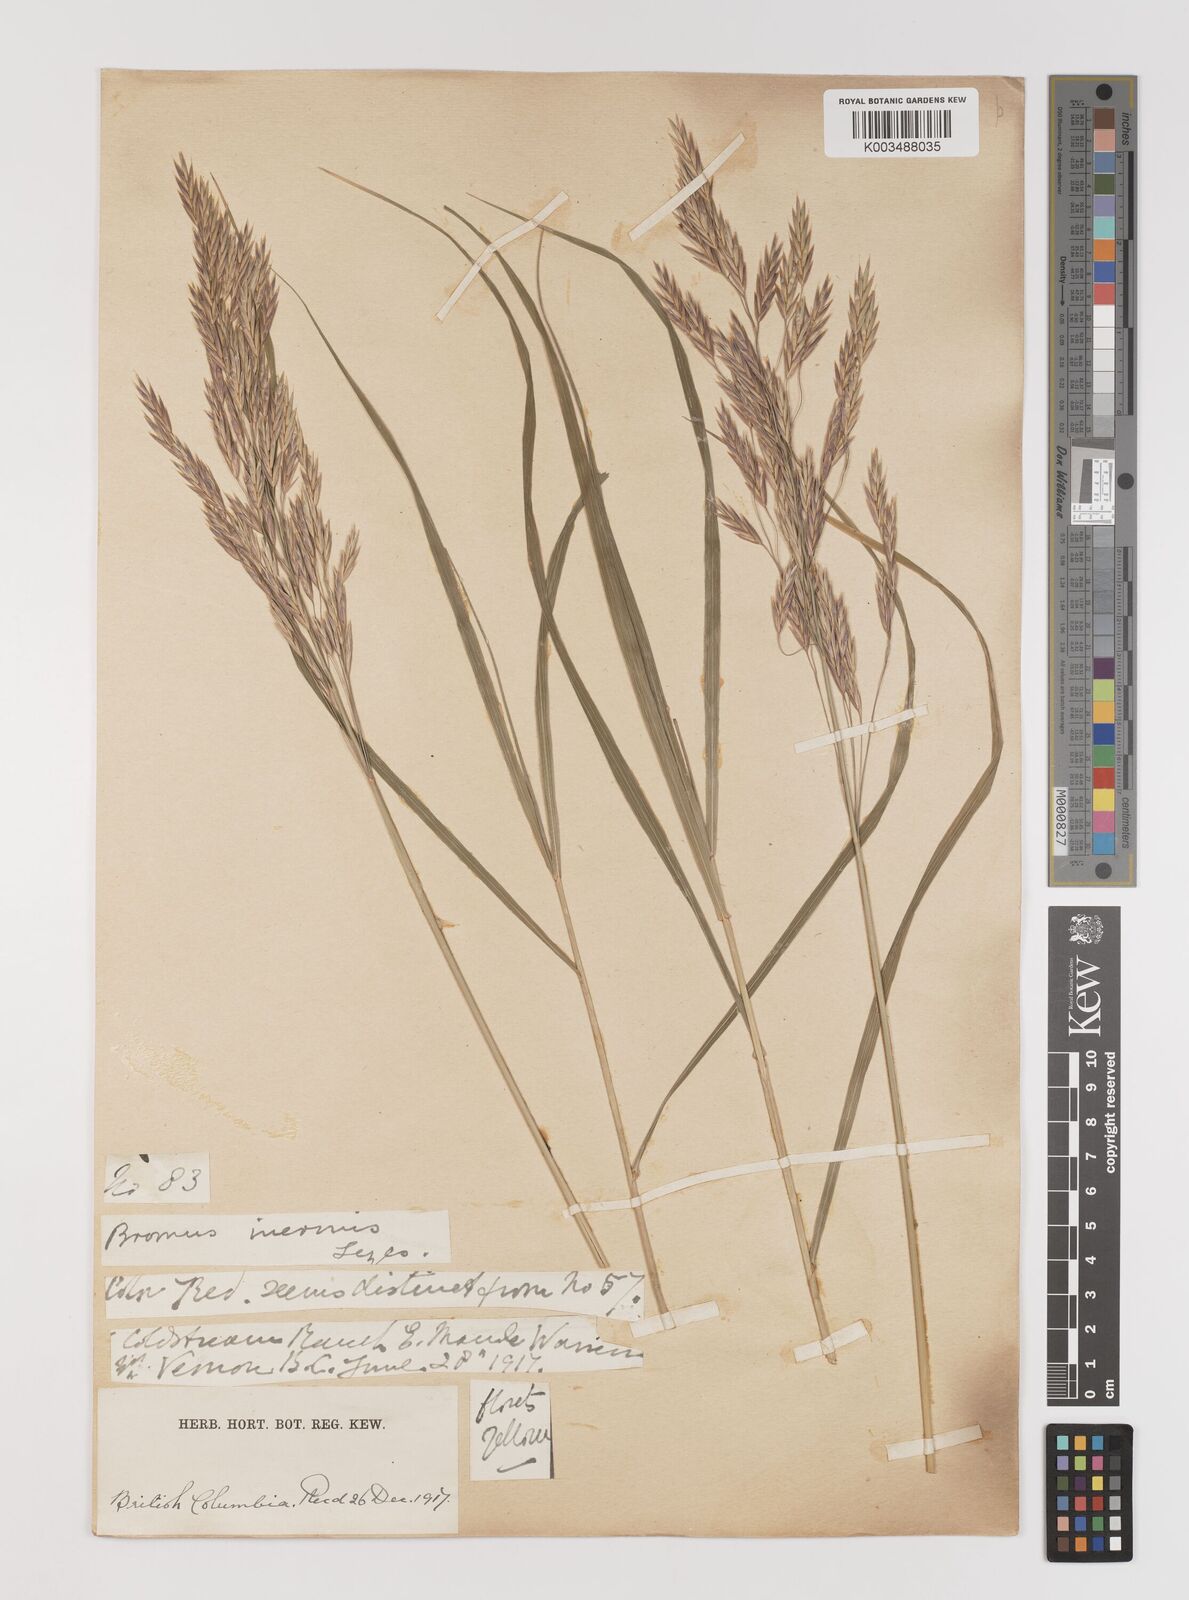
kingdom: Plantae
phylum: Tracheophyta
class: Liliopsida
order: Poales
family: Poaceae
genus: Bromus
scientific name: Bromus inermis
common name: Smooth brome
